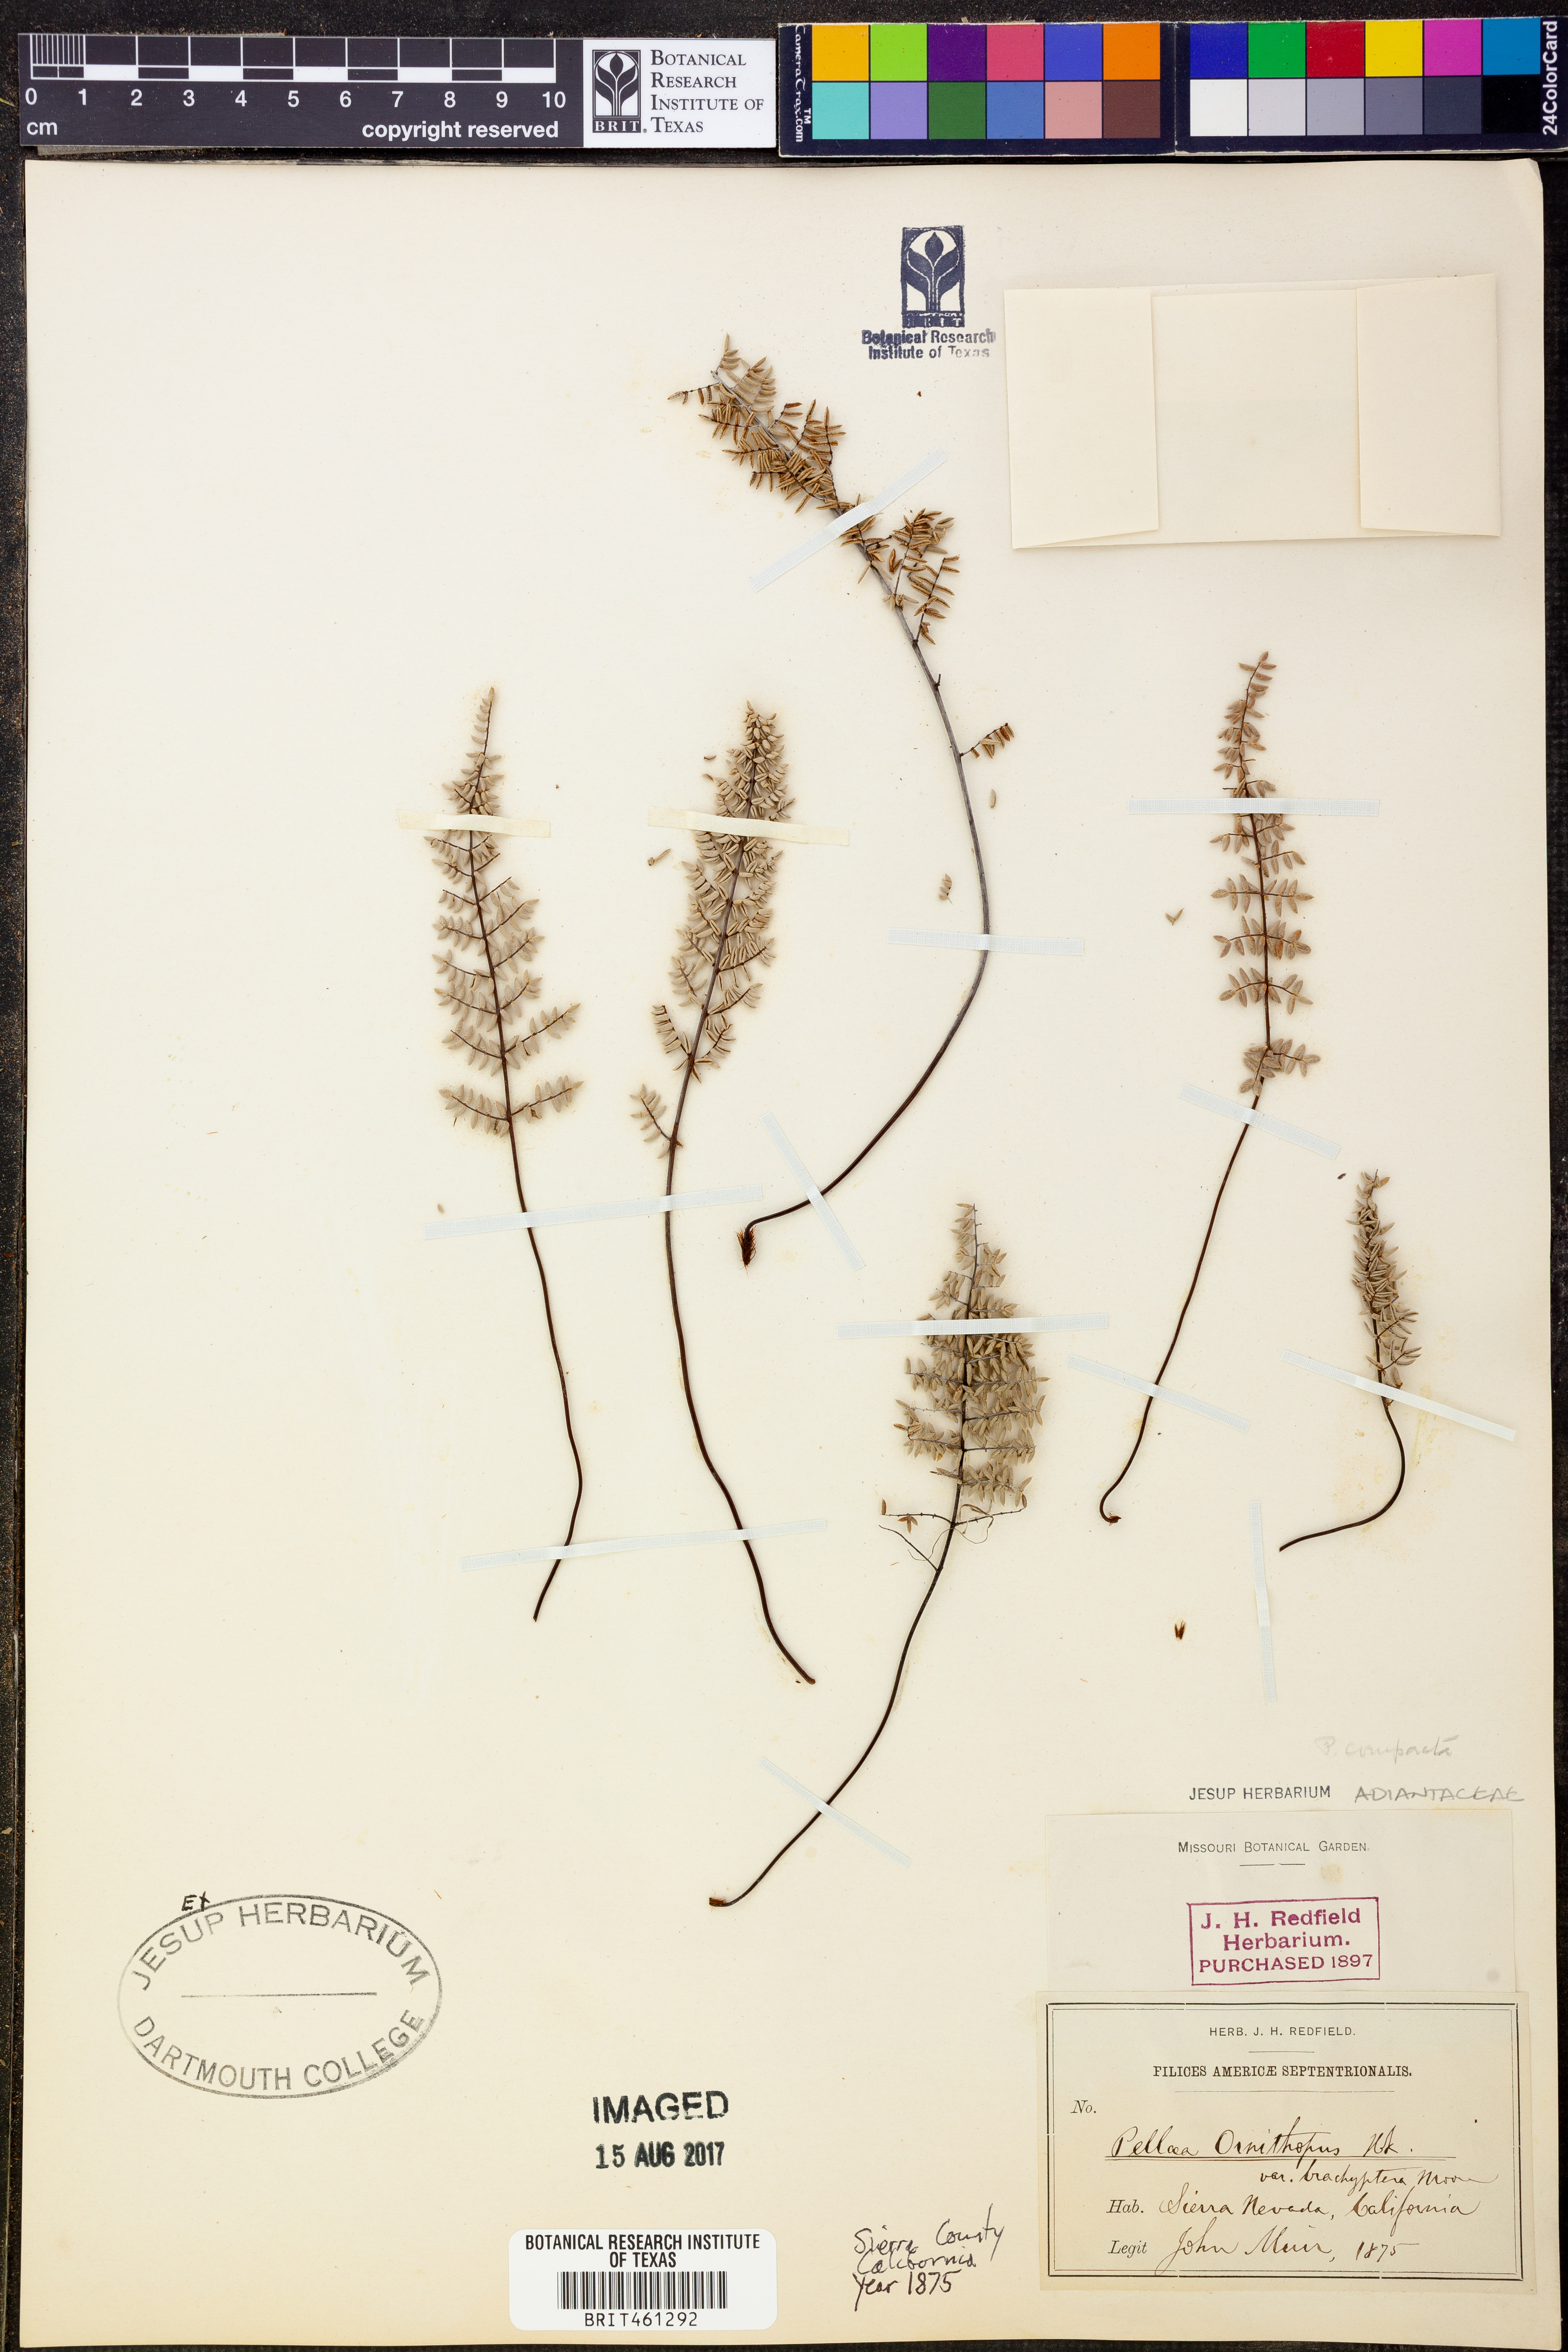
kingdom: Plantae
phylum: Tracheophyta
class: Polypodiopsida
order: Polypodiales
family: Pteridaceae
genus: Pellaea
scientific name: Pellaea mucronata
